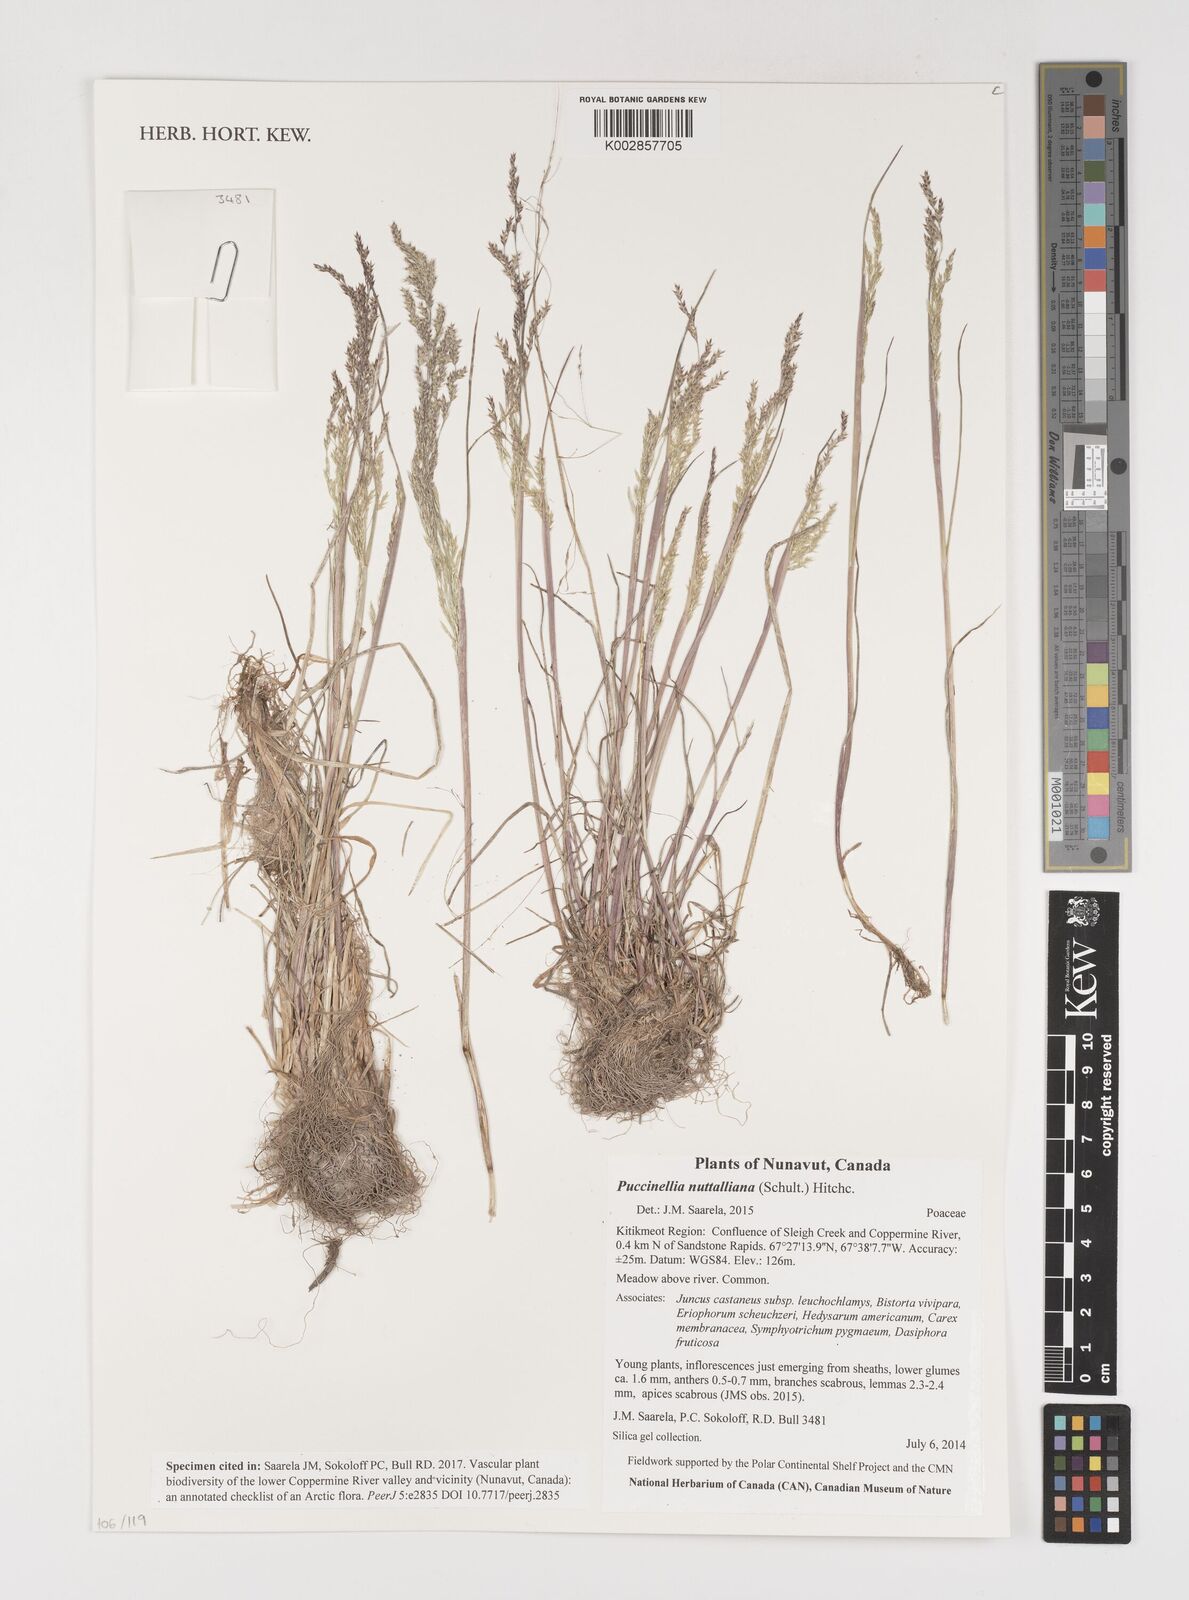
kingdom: Plantae
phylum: Tracheophyta
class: Liliopsida
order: Poales
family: Poaceae
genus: Puccinellia
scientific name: Puccinellia nuttalliana
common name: Nuttall's alkali grass
